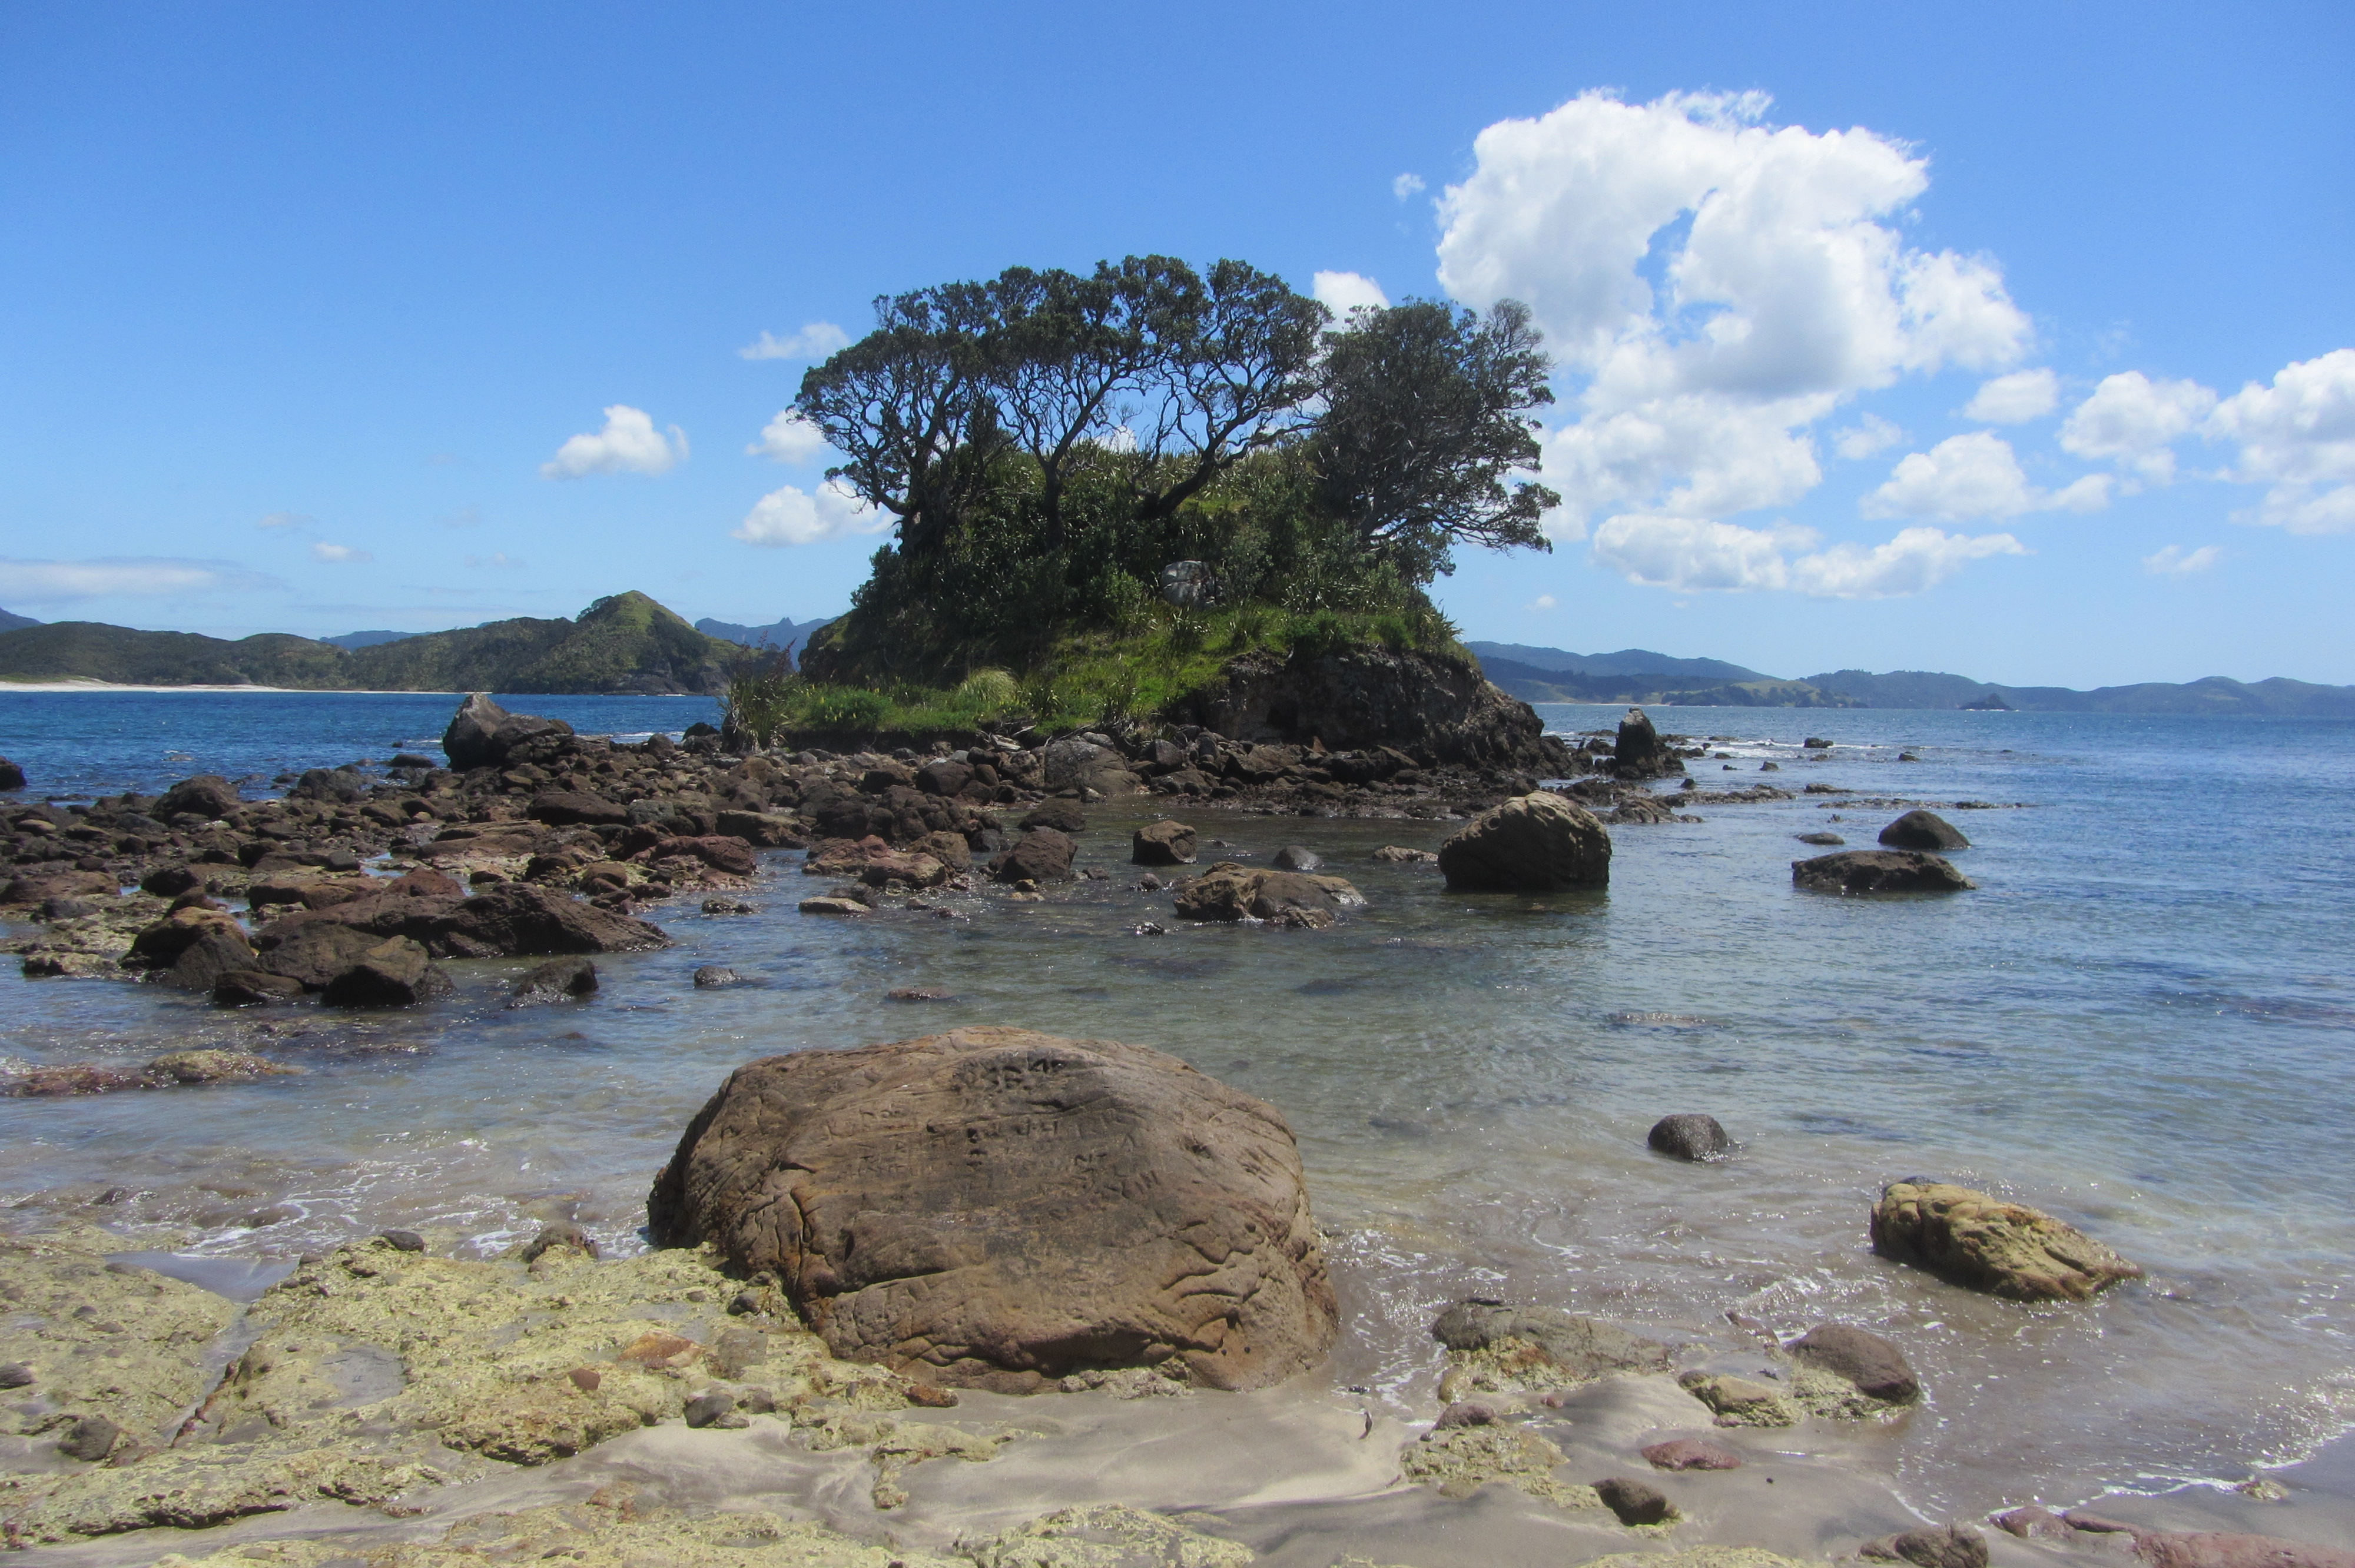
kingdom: Plantae
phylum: Tracheophyta
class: Liliopsida
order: Asparagales
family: Asphodelaceae
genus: Aloe
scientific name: Aloe microstigma
